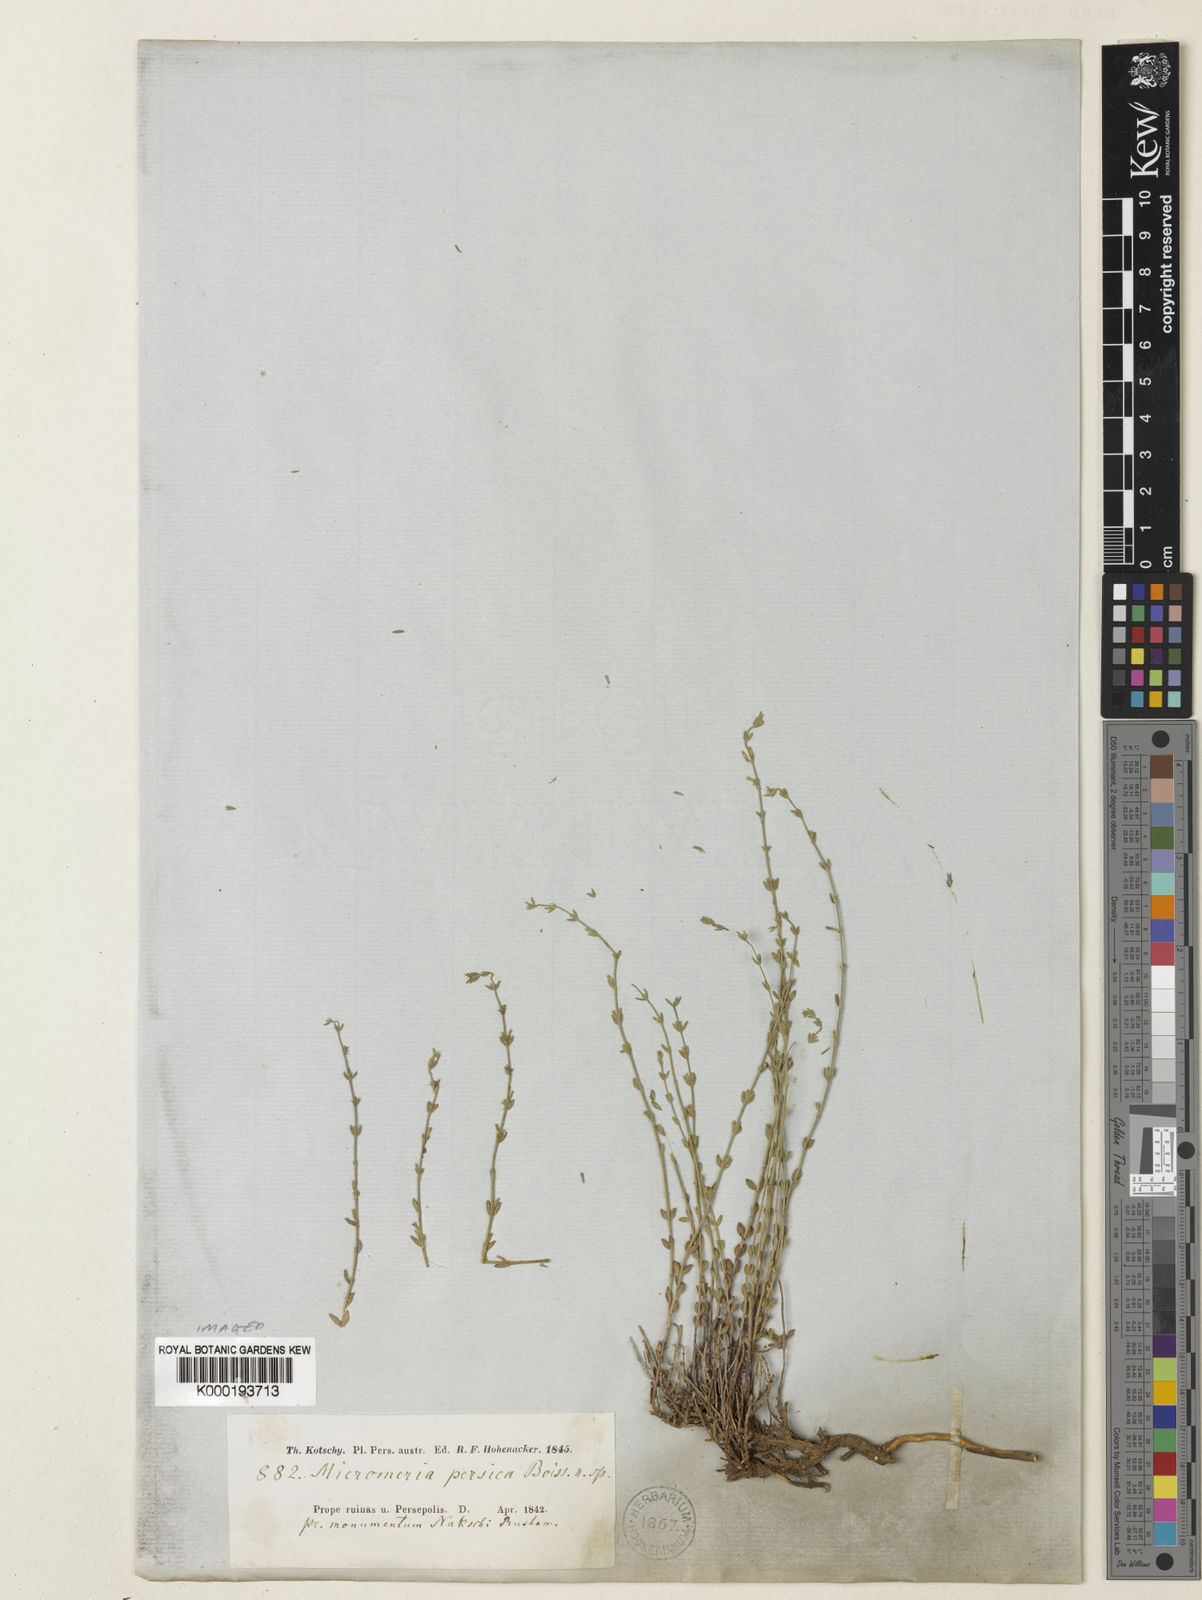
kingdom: Plantae
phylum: Tracheophyta
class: Magnoliopsida
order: Lamiales
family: Lamiaceae
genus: Micromeria
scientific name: Micromeria persica
